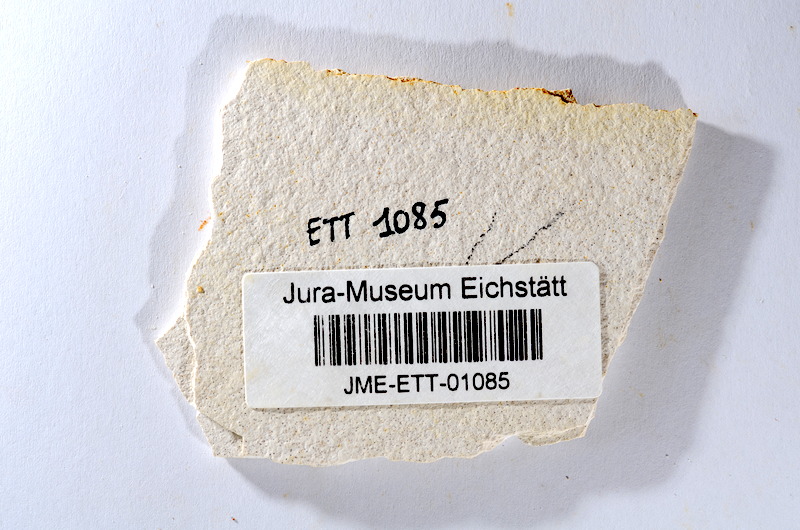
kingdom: Animalia
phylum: Chordata
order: Salmoniformes
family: Orthogonikleithridae
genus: Orthogonikleithrus
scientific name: Orthogonikleithrus hoelli
